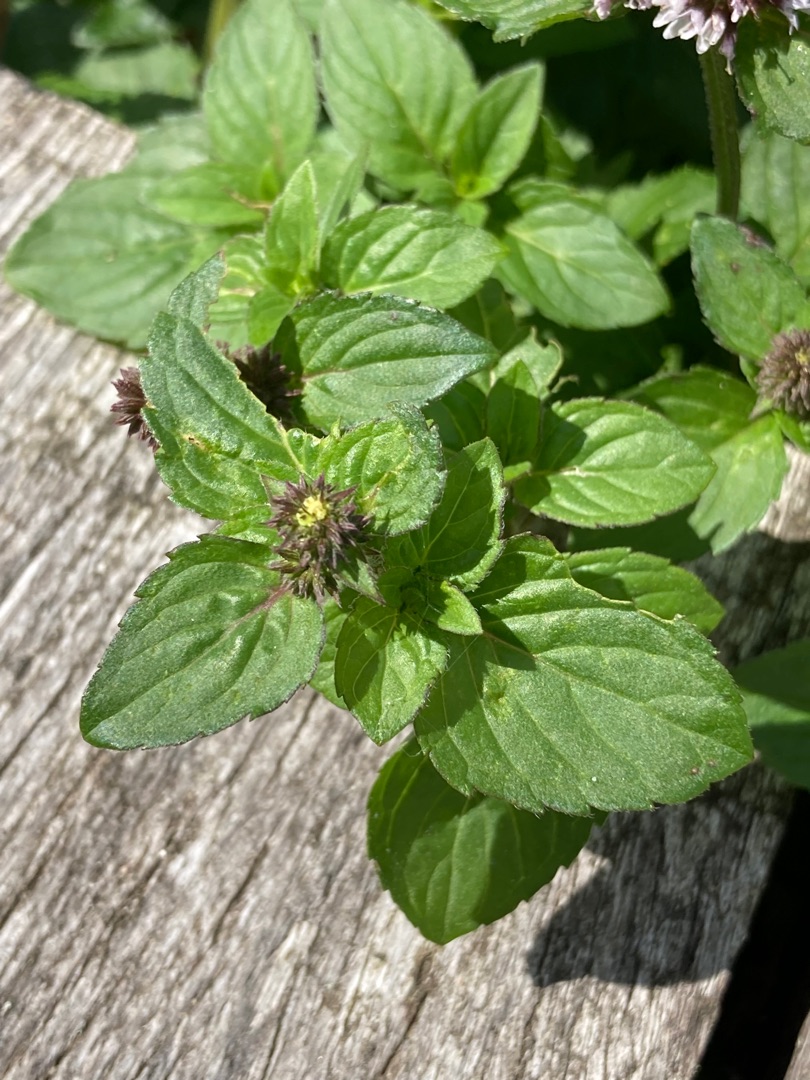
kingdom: Plantae
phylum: Tracheophyta
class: Magnoliopsida
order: Lamiales
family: Lamiaceae
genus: Mentha
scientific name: Mentha aquatica
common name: Vand-mynte
